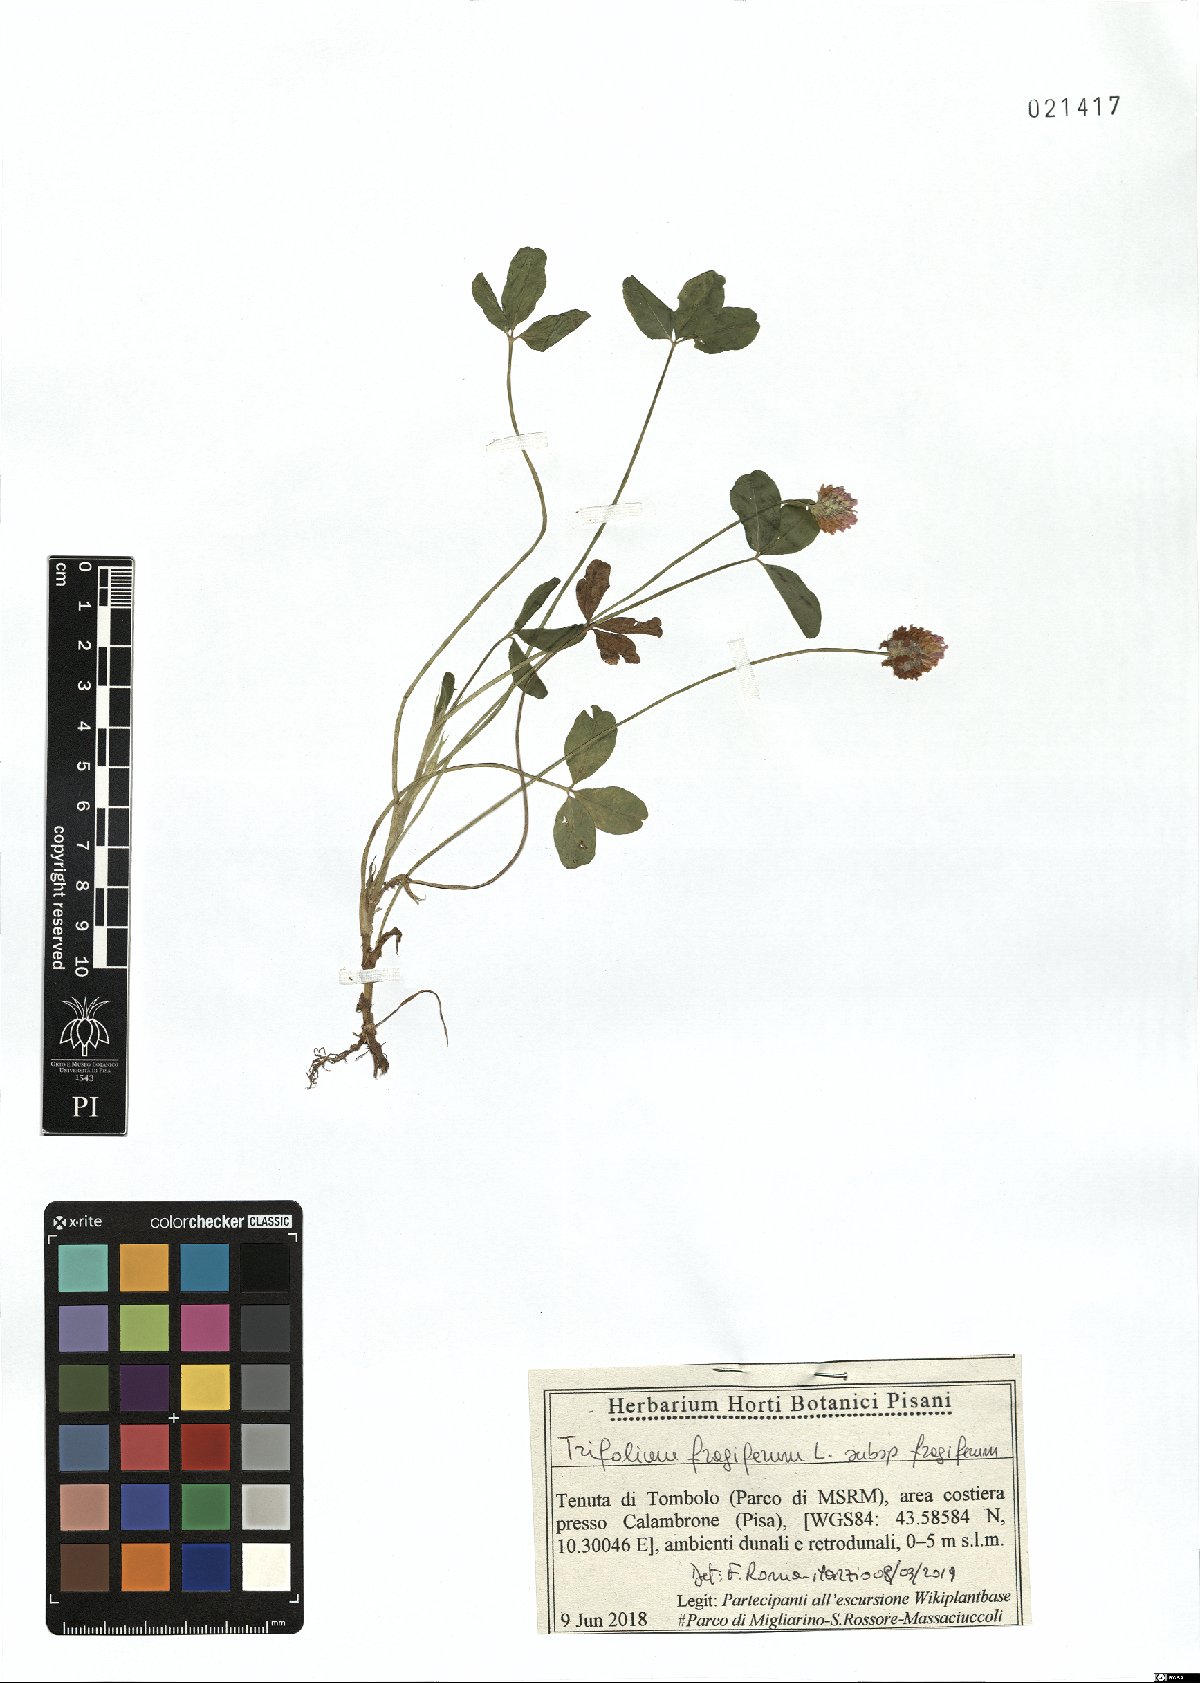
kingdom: Plantae
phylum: Tracheophyta
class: Magnoliopsida
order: Fabales
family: Fabaceae
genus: Trifolium
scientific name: Trifolium fragiferum
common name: Strawberry clover
